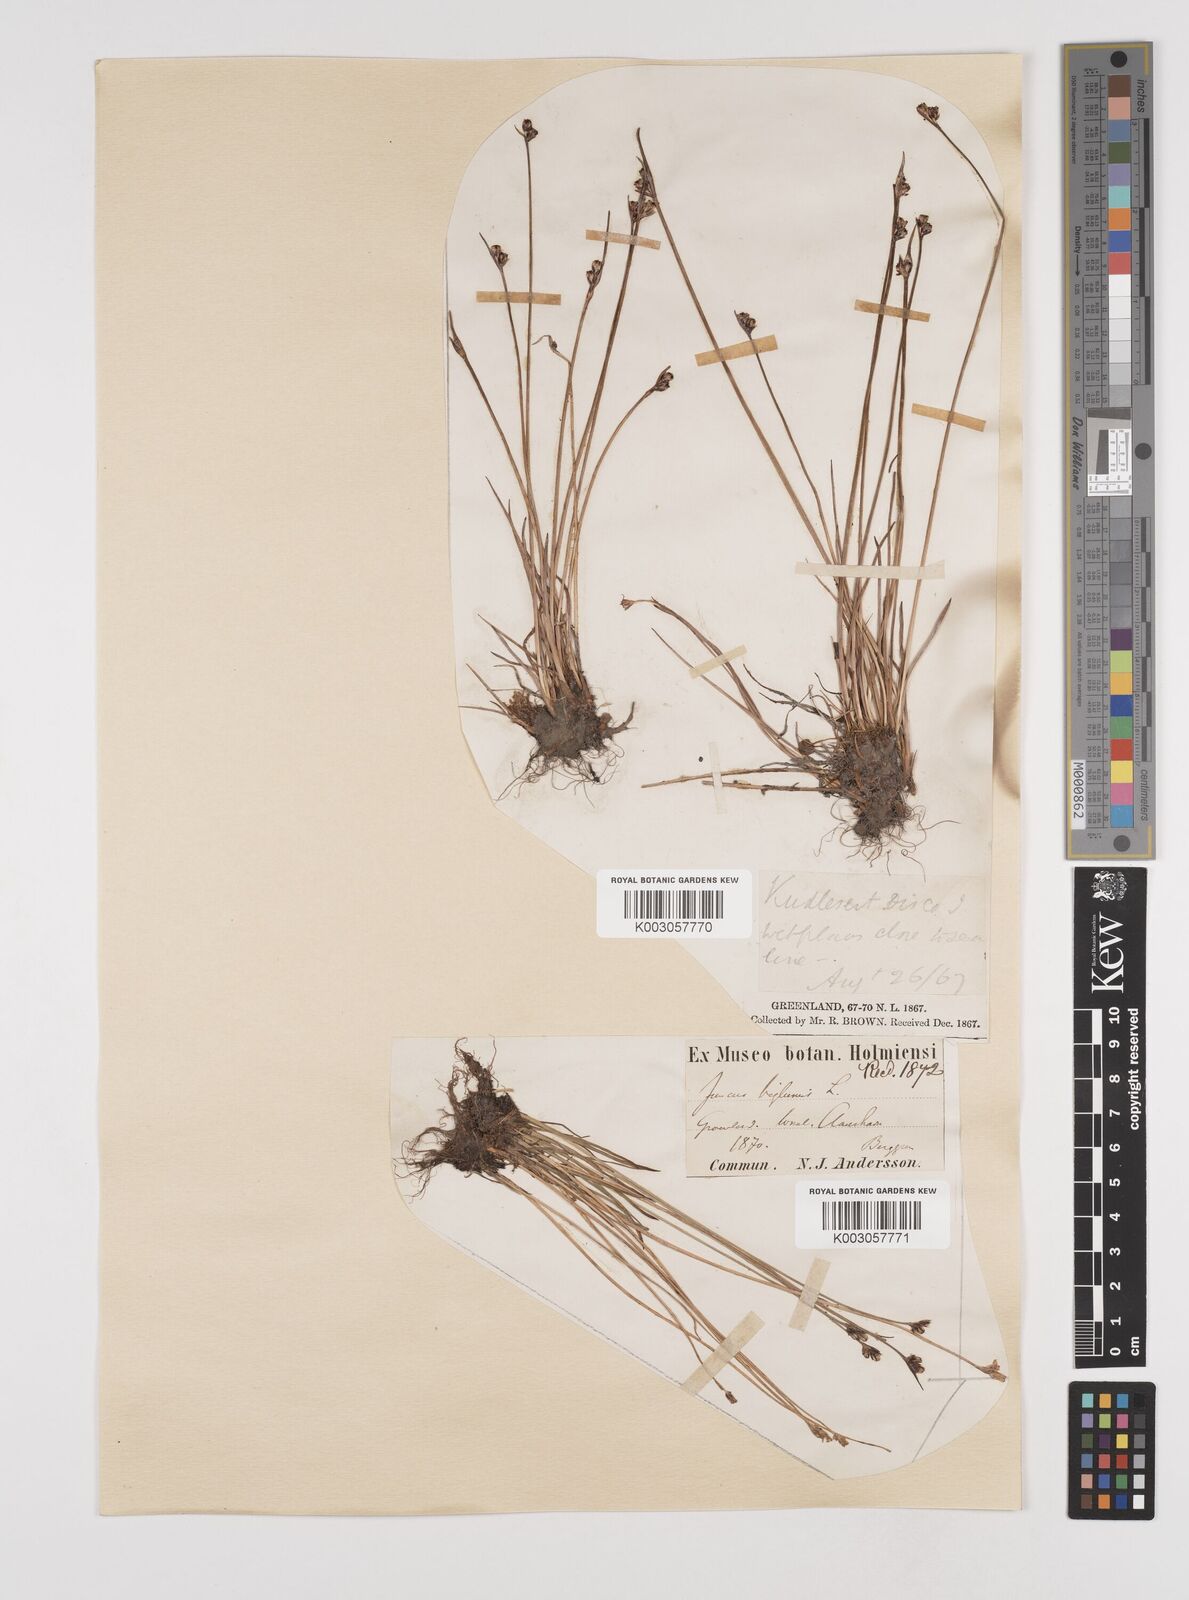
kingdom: Plantae
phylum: Tracheophyta
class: Liliopsida
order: Poales
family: Juncaceae
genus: Juncus
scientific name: Juncus biglumis
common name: Two-flowered rush
